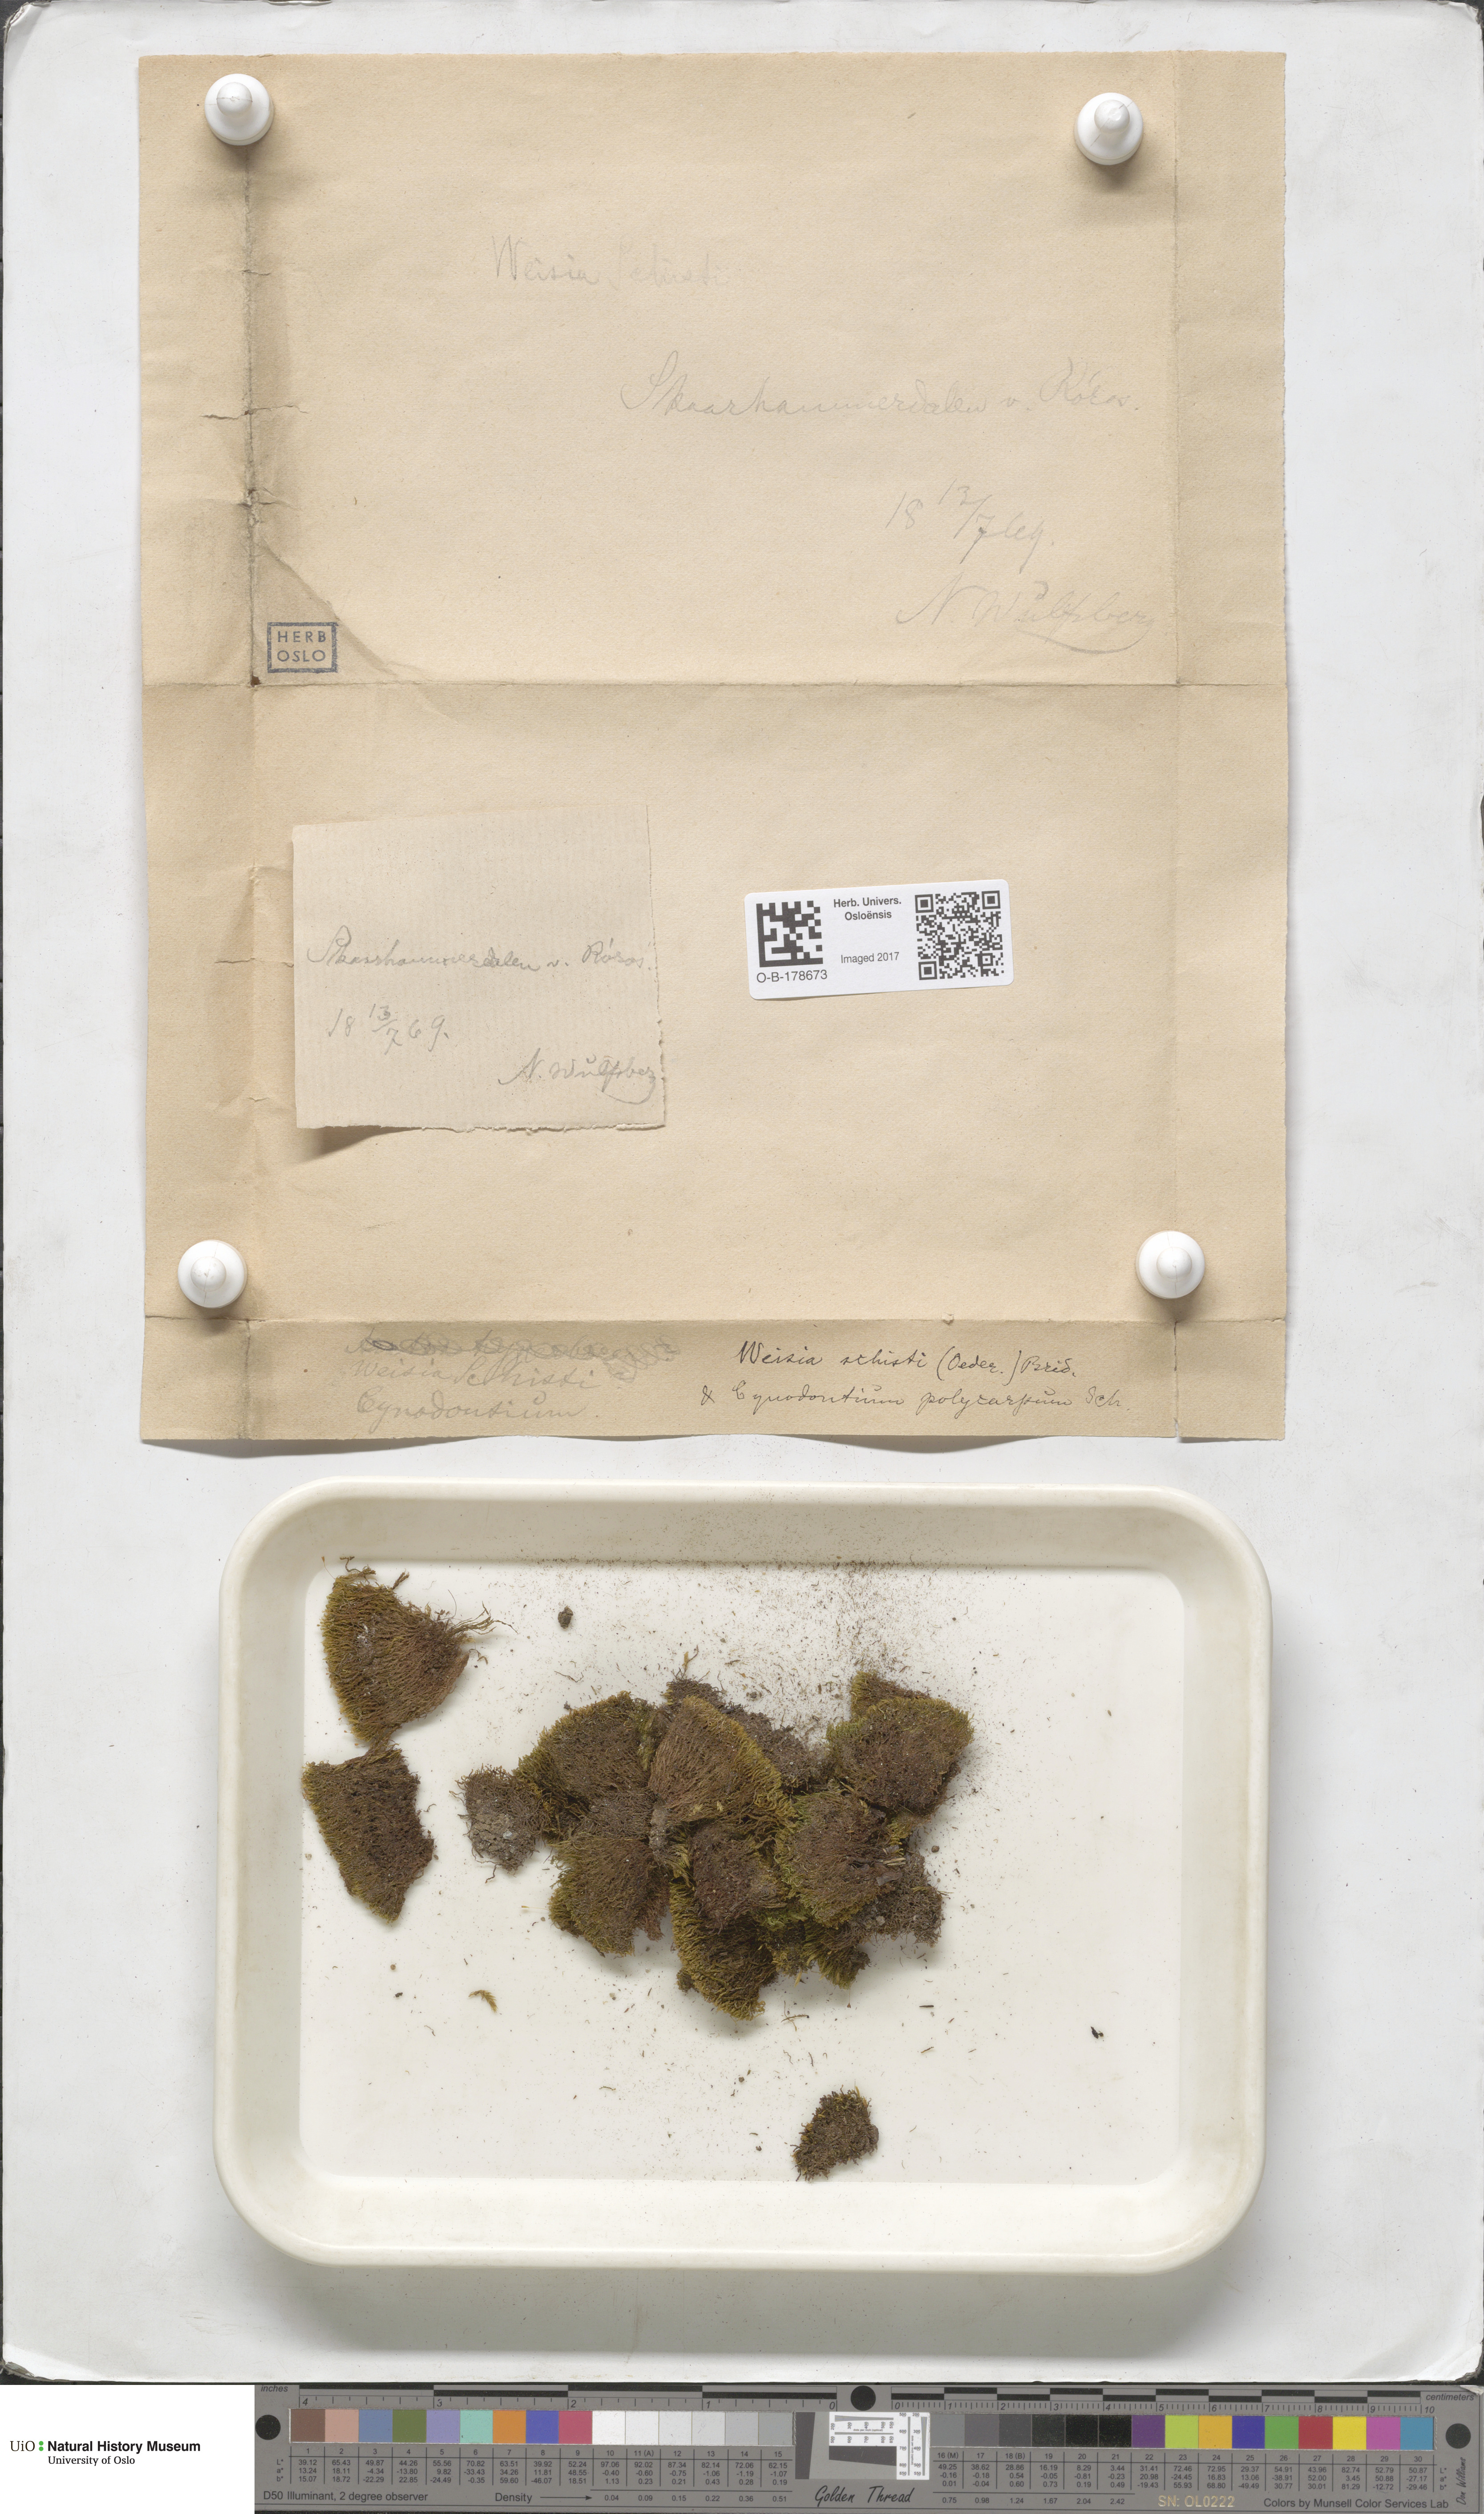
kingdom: Plantae
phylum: Bryophyta
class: Bryopsida
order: Dicranales
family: Rhabdoweisiaceae
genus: Cnestrum
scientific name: Cnestrum schisti
